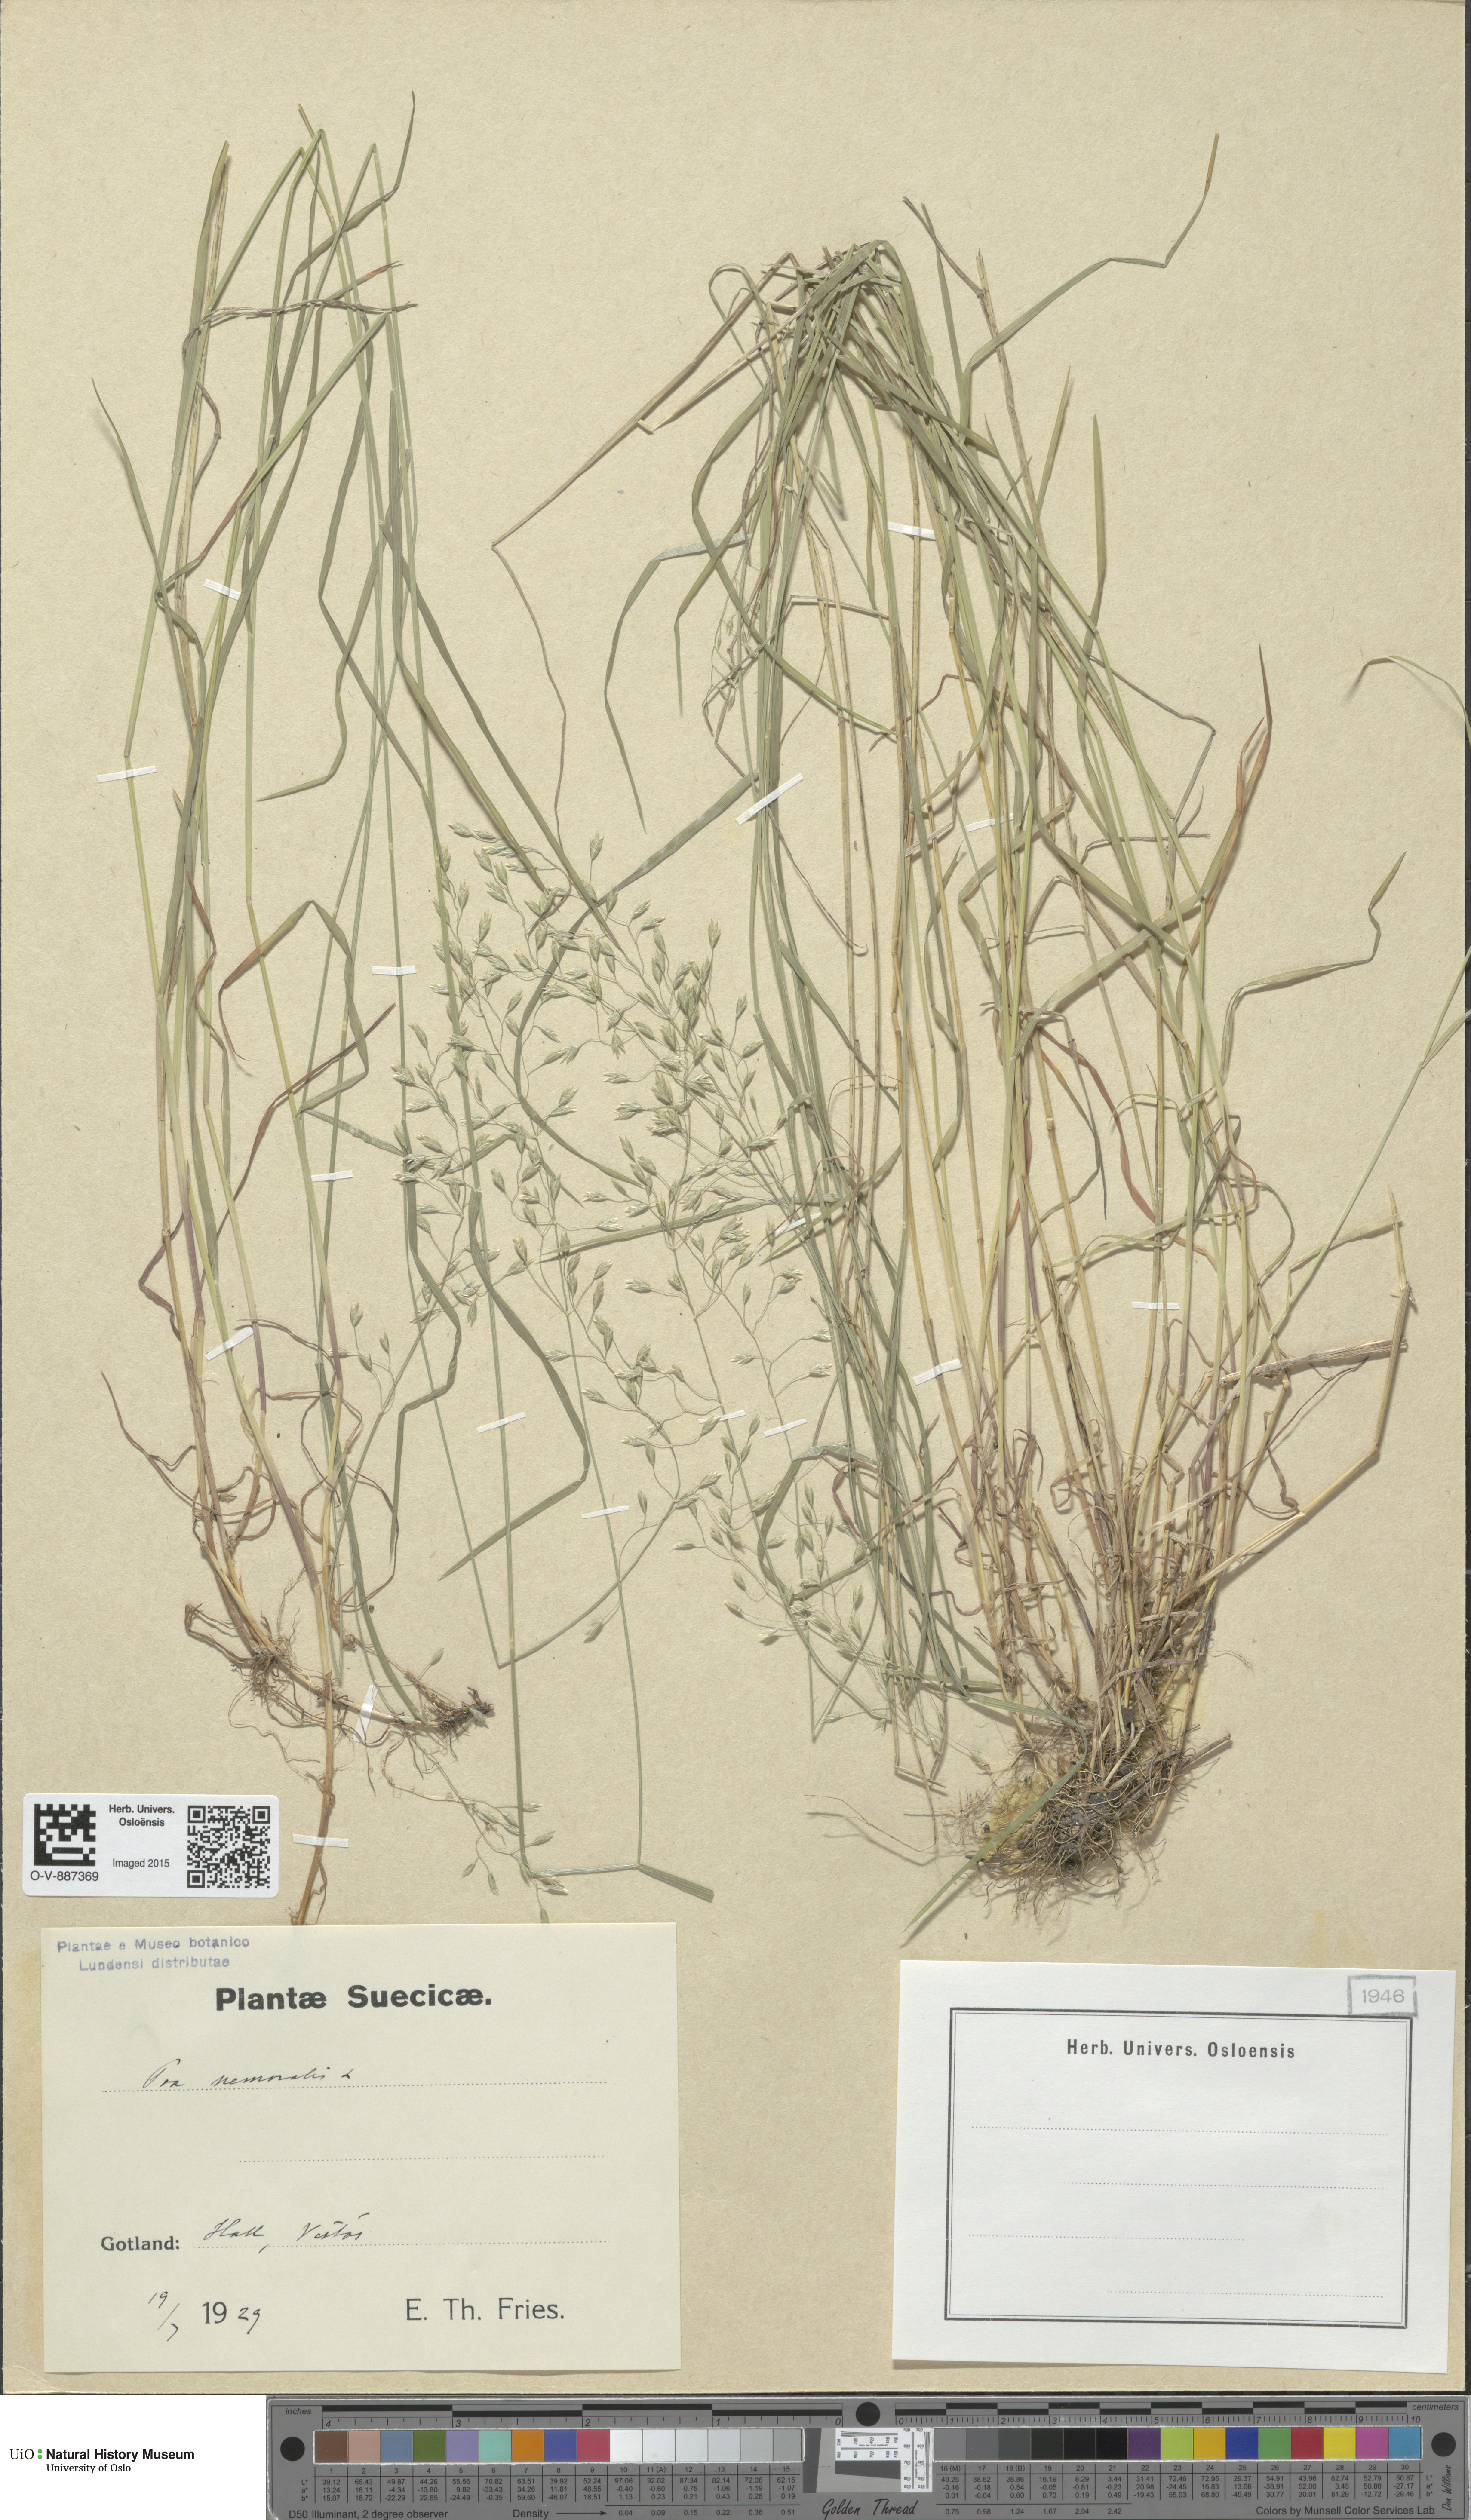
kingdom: Plantae
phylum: Tracheophyta
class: Liliopsida
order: Poales
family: Poaceae
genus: Poa
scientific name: Poa nemoralis
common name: Wood bluegrass
